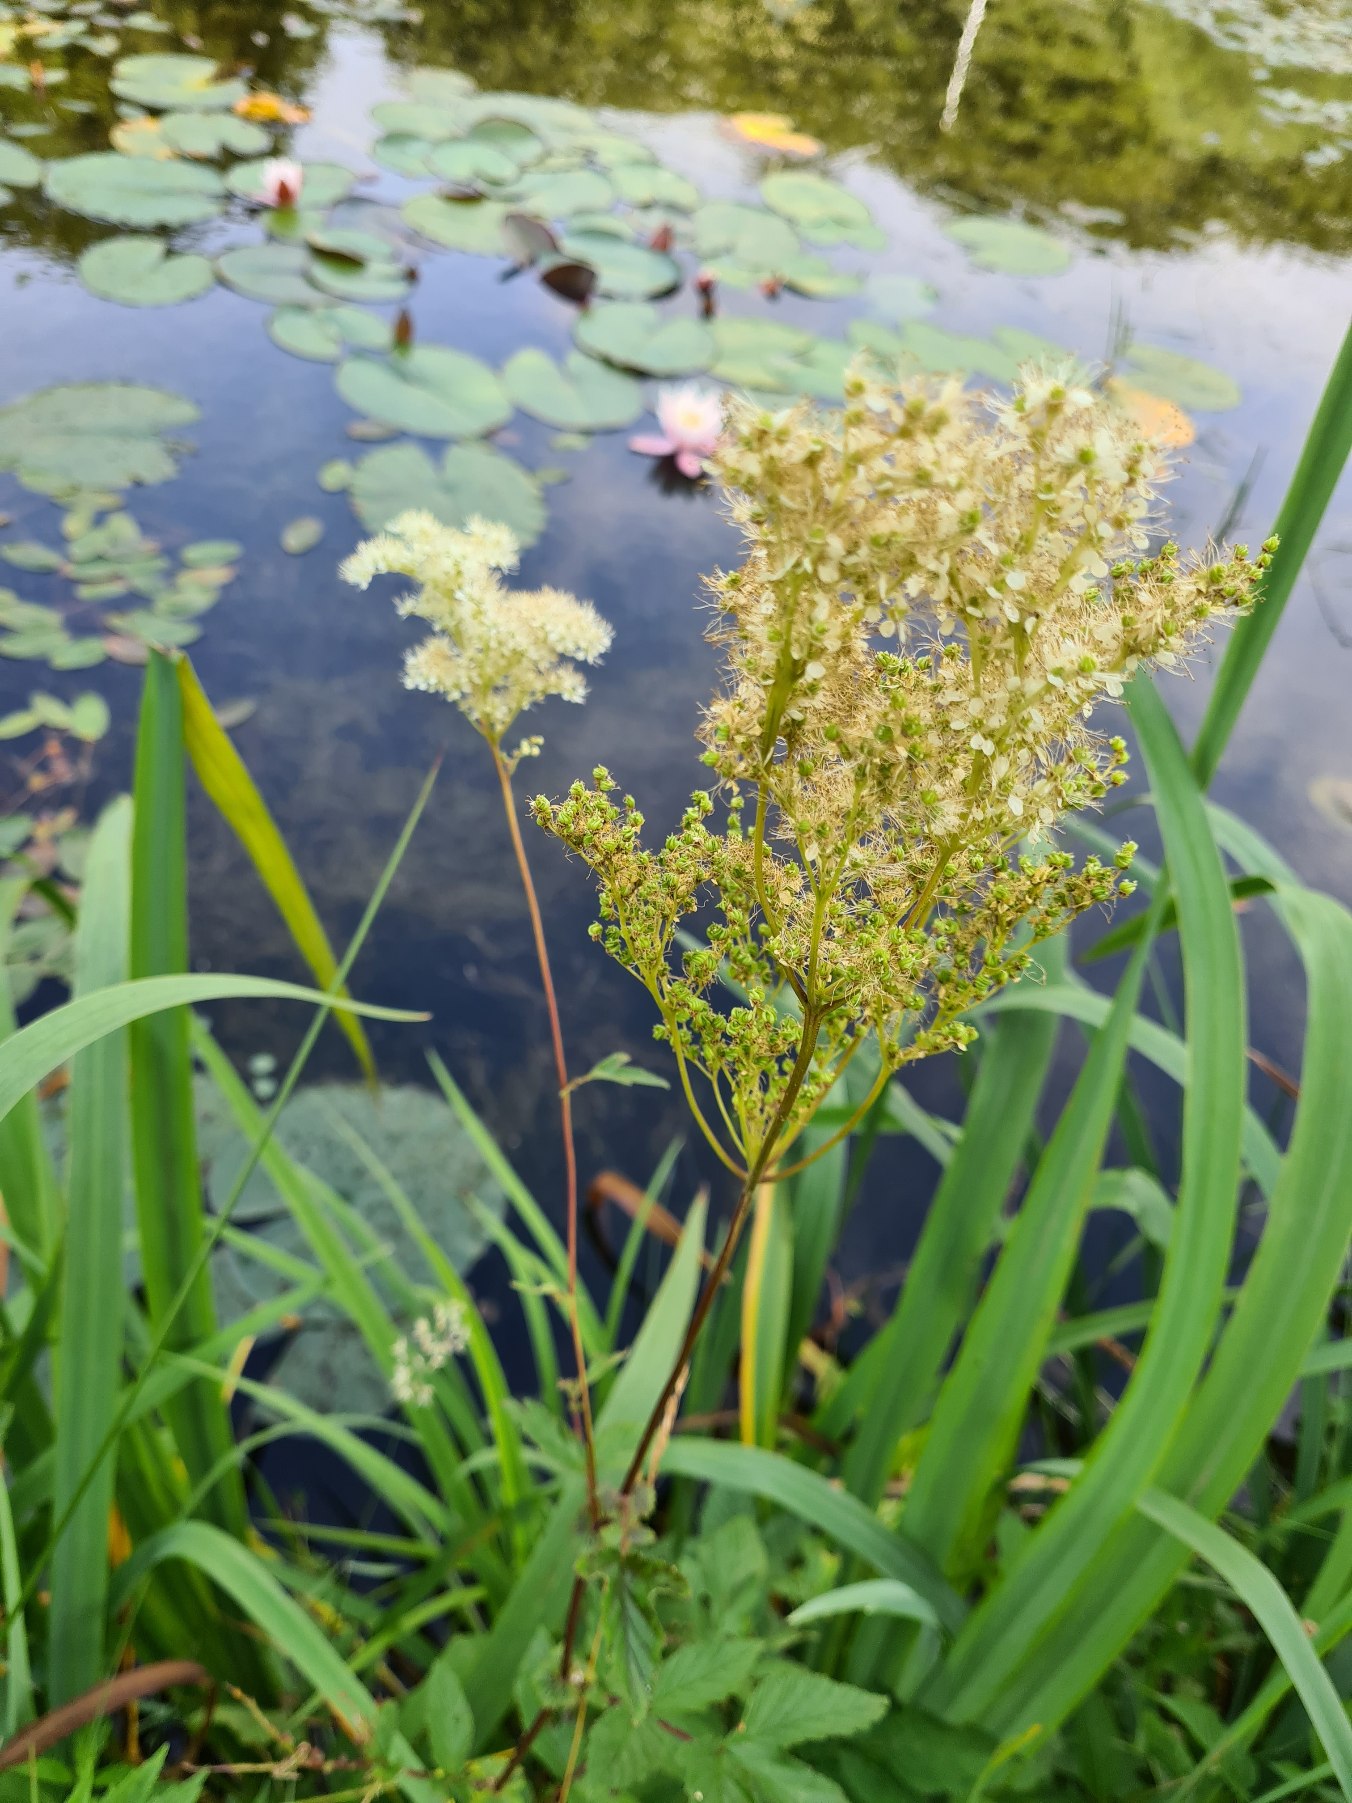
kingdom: Plantae
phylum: Tracheophyta
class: Magnoliopsida
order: Rosales
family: Rosaceae
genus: Filipendula
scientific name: Filipendula ulmaria
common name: Almindelig mjødurt
